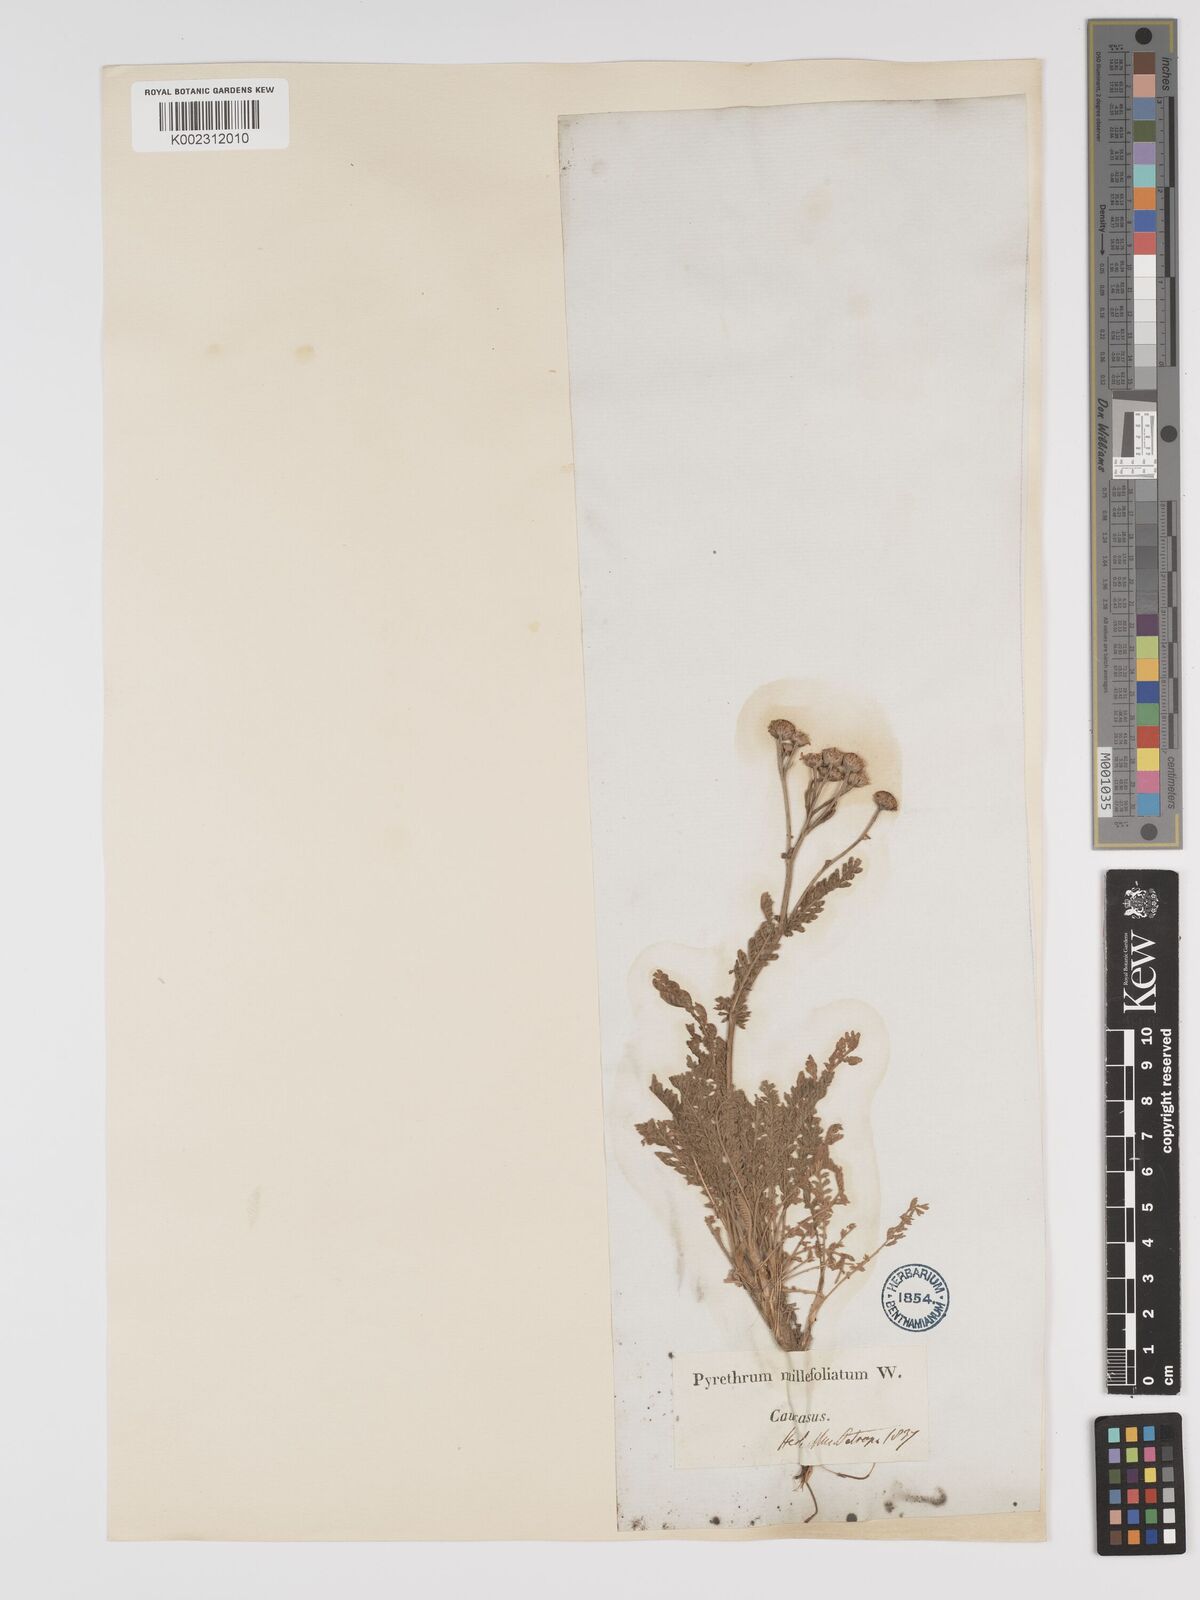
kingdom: Plantae
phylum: Tracheophyta
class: Magnoliopsida
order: Asterales
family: Asteraceae
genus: Tanacetum
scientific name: Tanacetum achilleifolium
